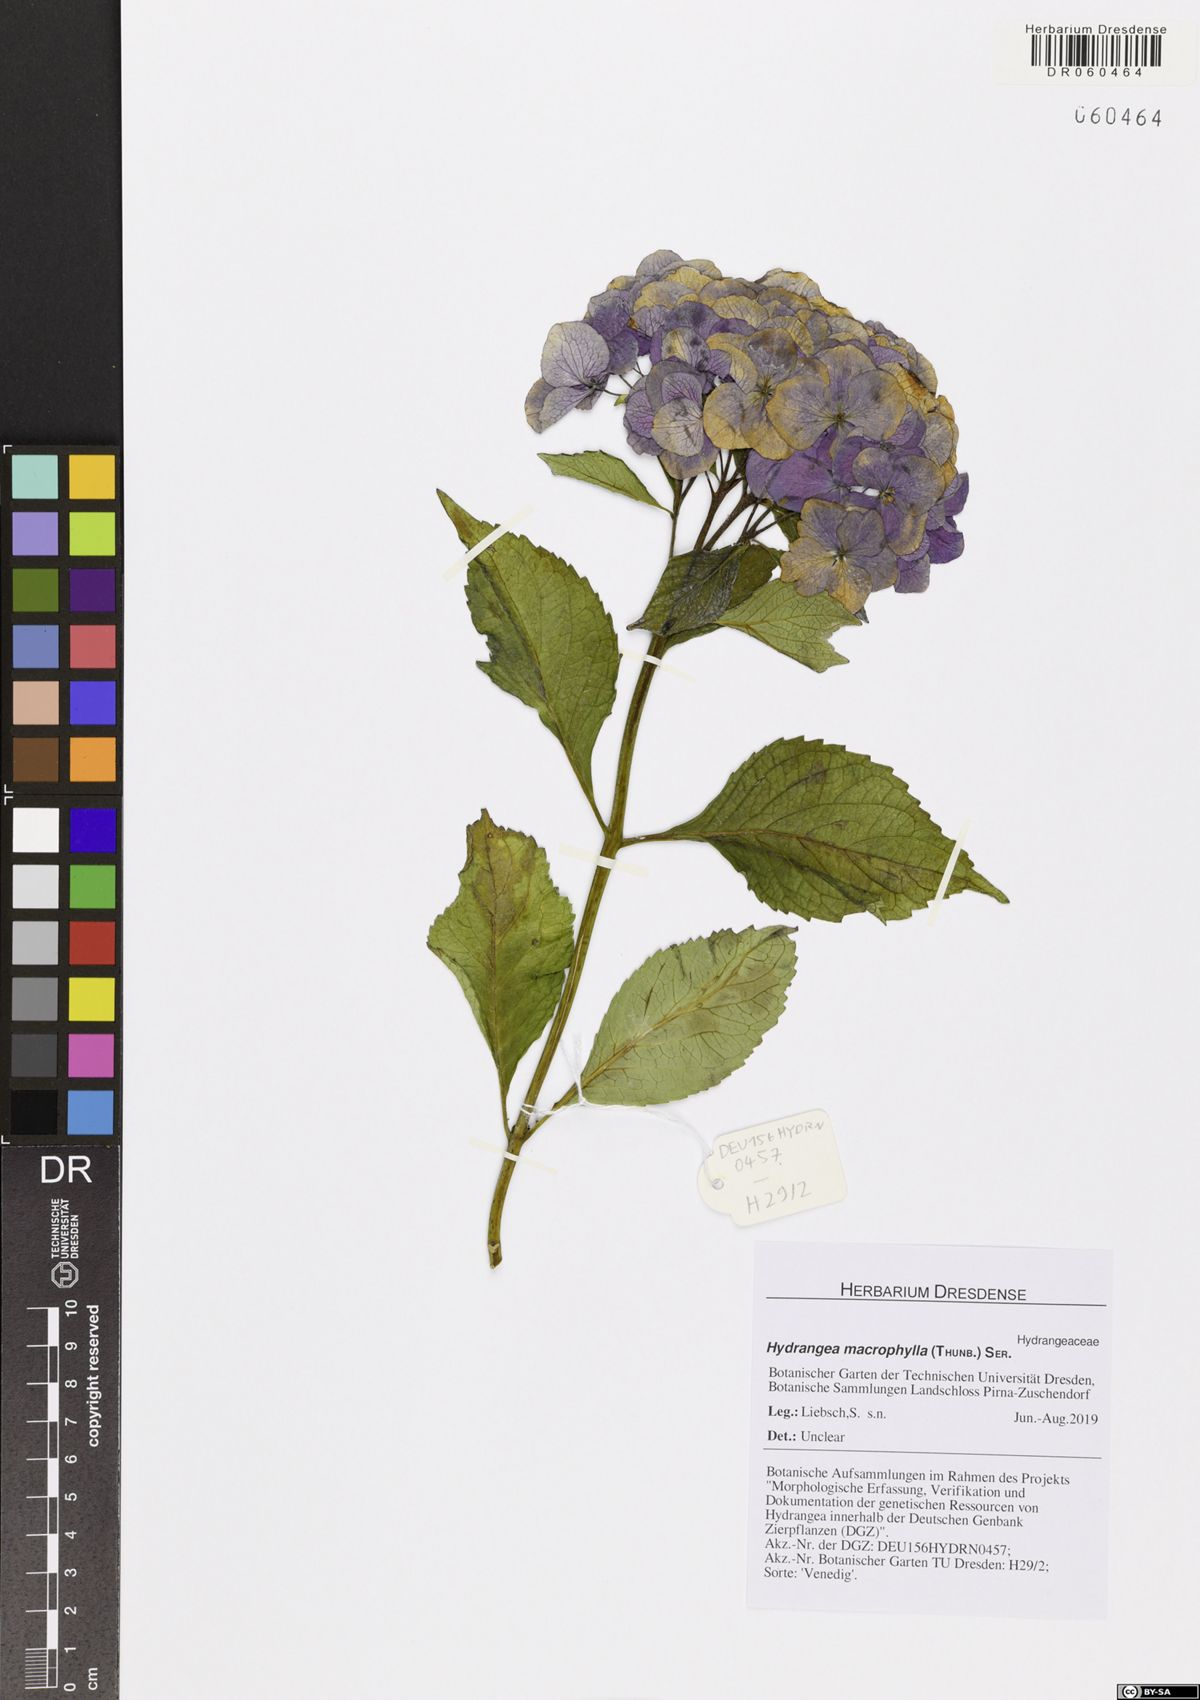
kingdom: Plantae
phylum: Tracheophyta
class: Magnoliopsida
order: Cornales
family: Hydrangeaceae
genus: Hydrangea
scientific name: Hydrangea macrophylla
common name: Hydrangea
